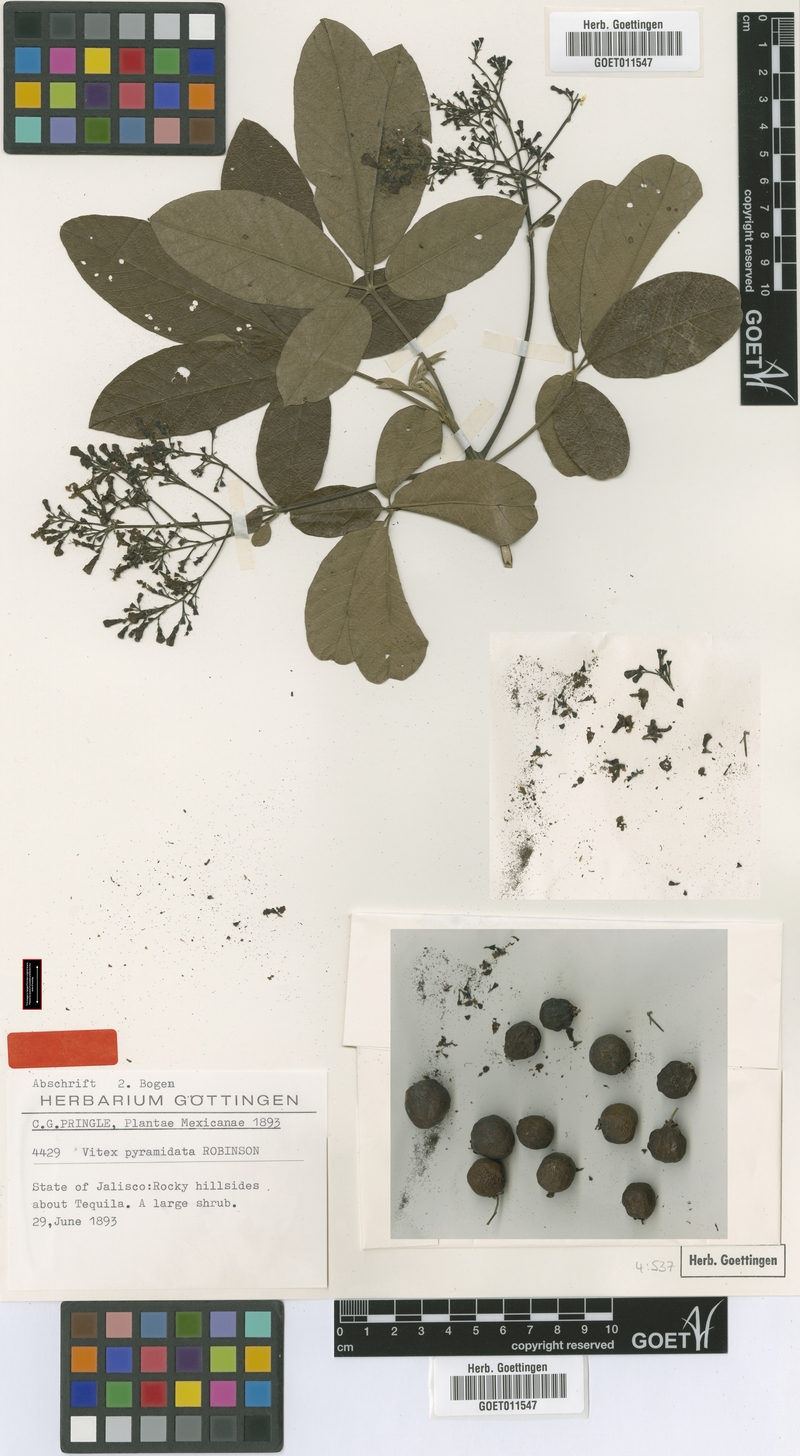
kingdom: Plantae
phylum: Tracheophyta
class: Magnoliopsida
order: Lamiales
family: Lamiaceae
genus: Vitex
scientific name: Vitex pyramidata
